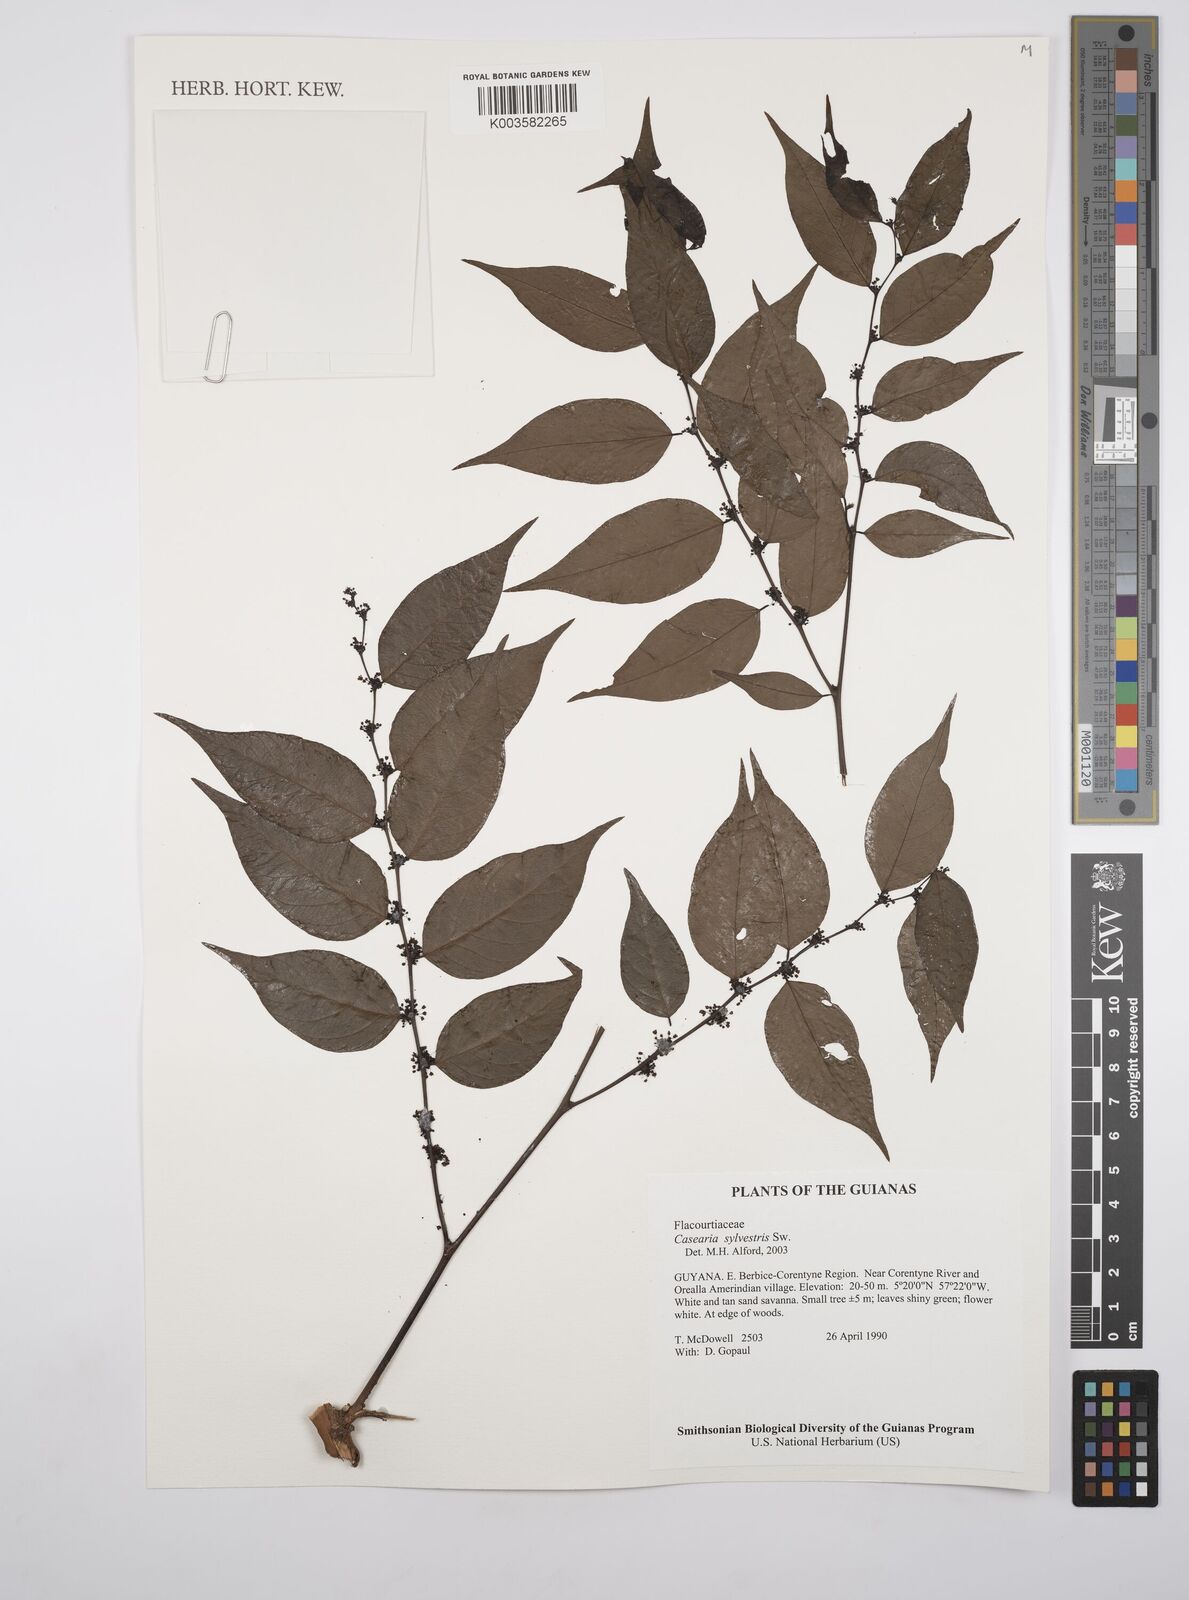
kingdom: Plantae
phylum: Tracheophyta
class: Magnoliopsida
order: Malpighiales
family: Salicaceae
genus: Casearia
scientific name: Casearia sylvestris
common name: Wild sage
